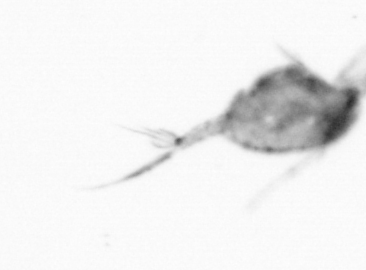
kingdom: Animalia
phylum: Arthropoda
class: Copepoda
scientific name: Copepoda
